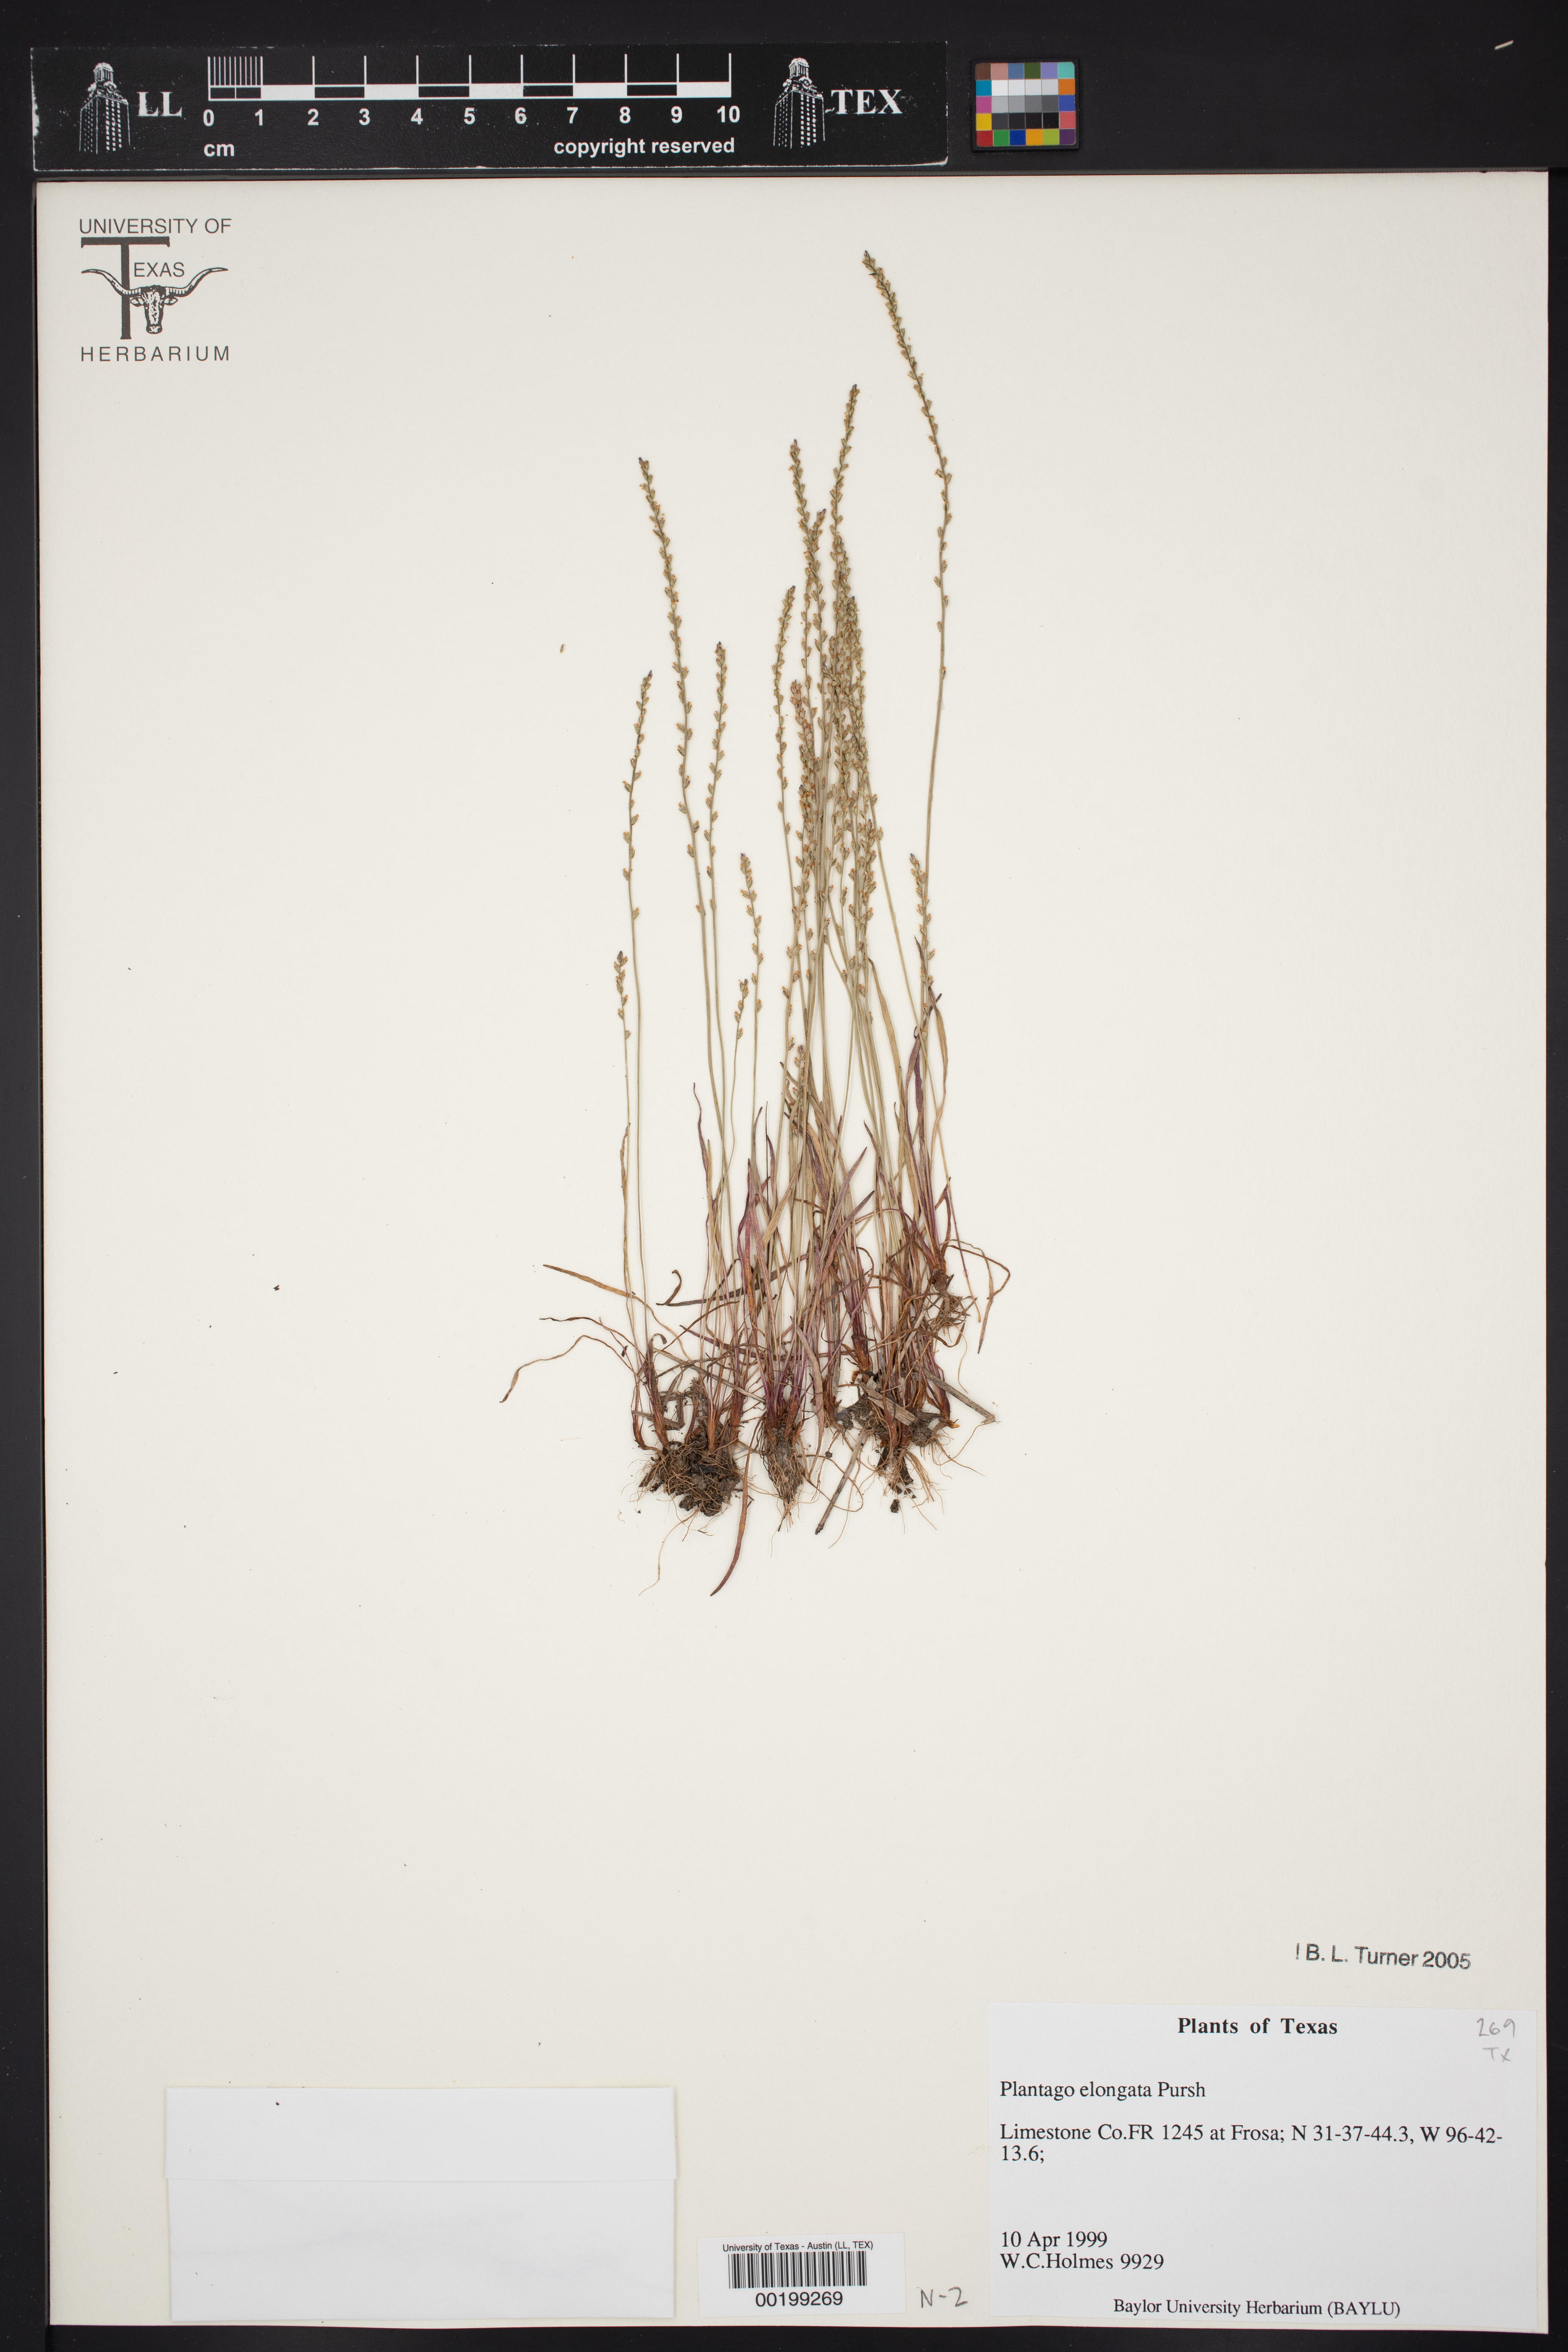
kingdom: Plantae
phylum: Tracheophyta
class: Magnoliopsida
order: Lamiales
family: Plantaginaceae
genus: Plantago
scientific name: Plantago elongata
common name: Linear-leaved plantain
